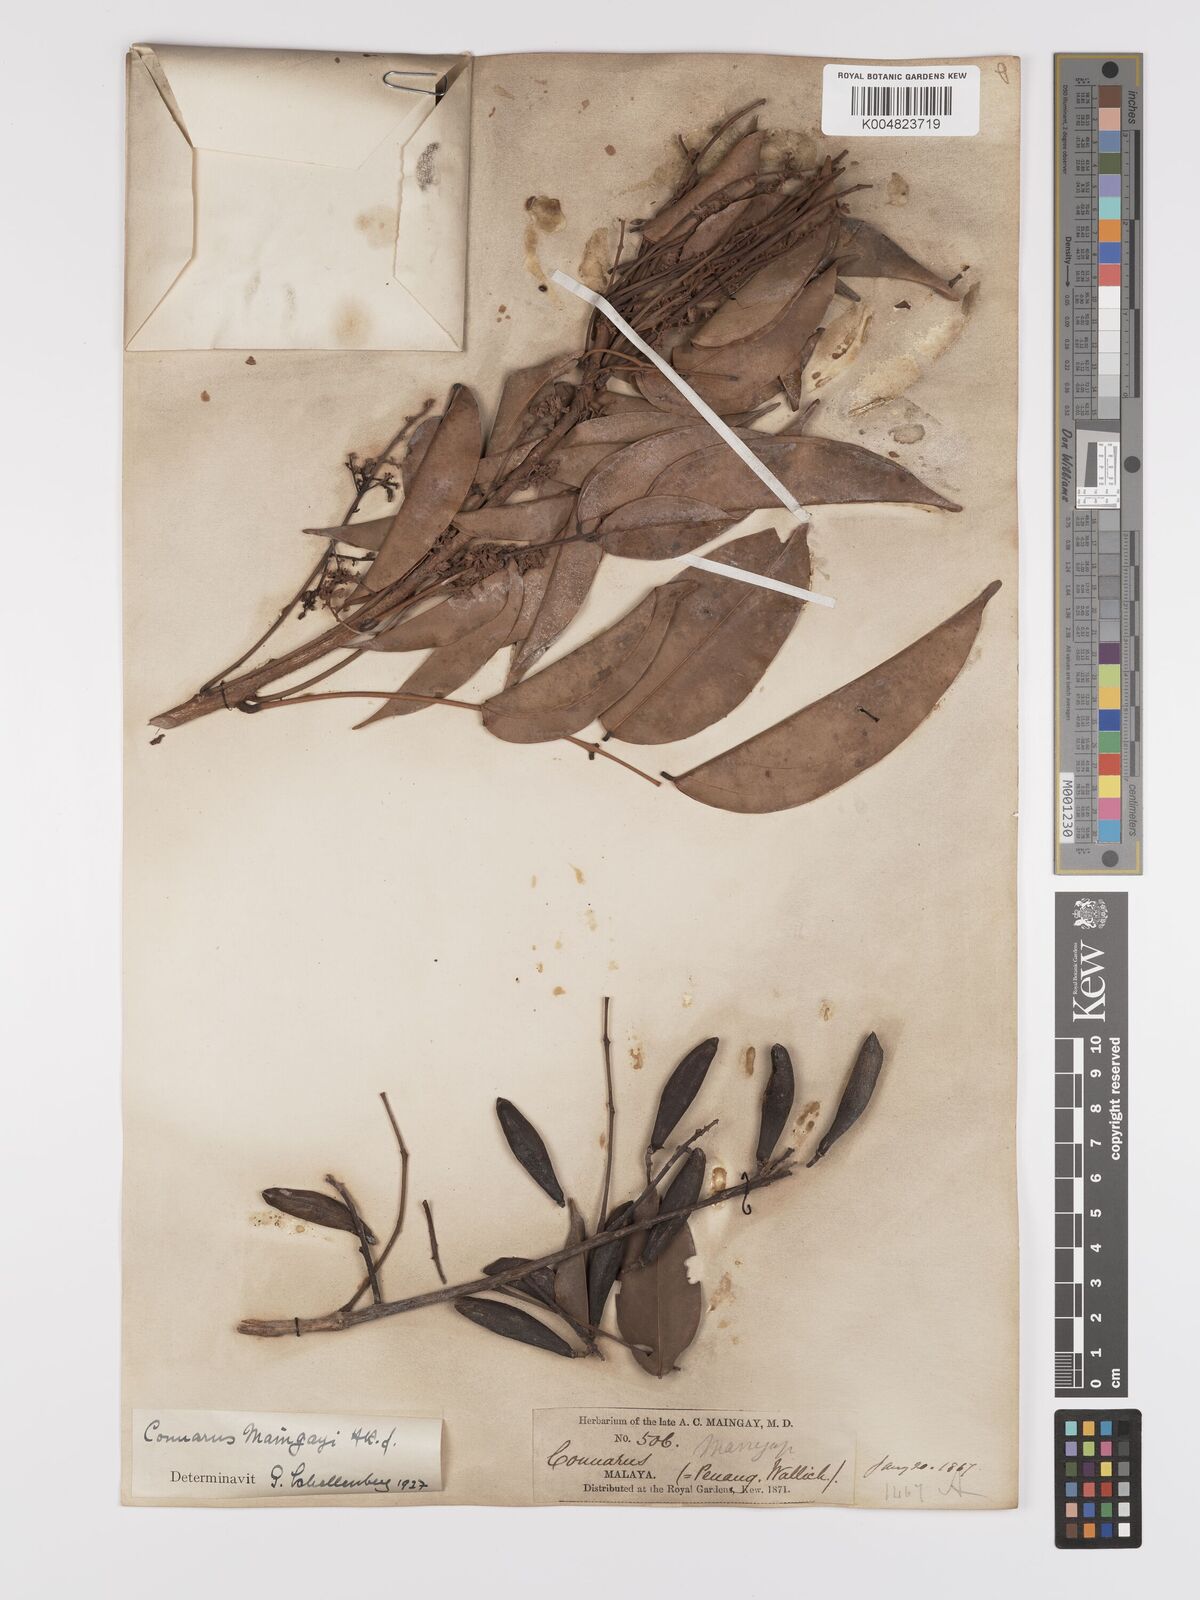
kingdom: Plantae
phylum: Tracheophyta
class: Magnoliopsida
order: Oxalidales
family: Connaraceae
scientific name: Connaraceae
